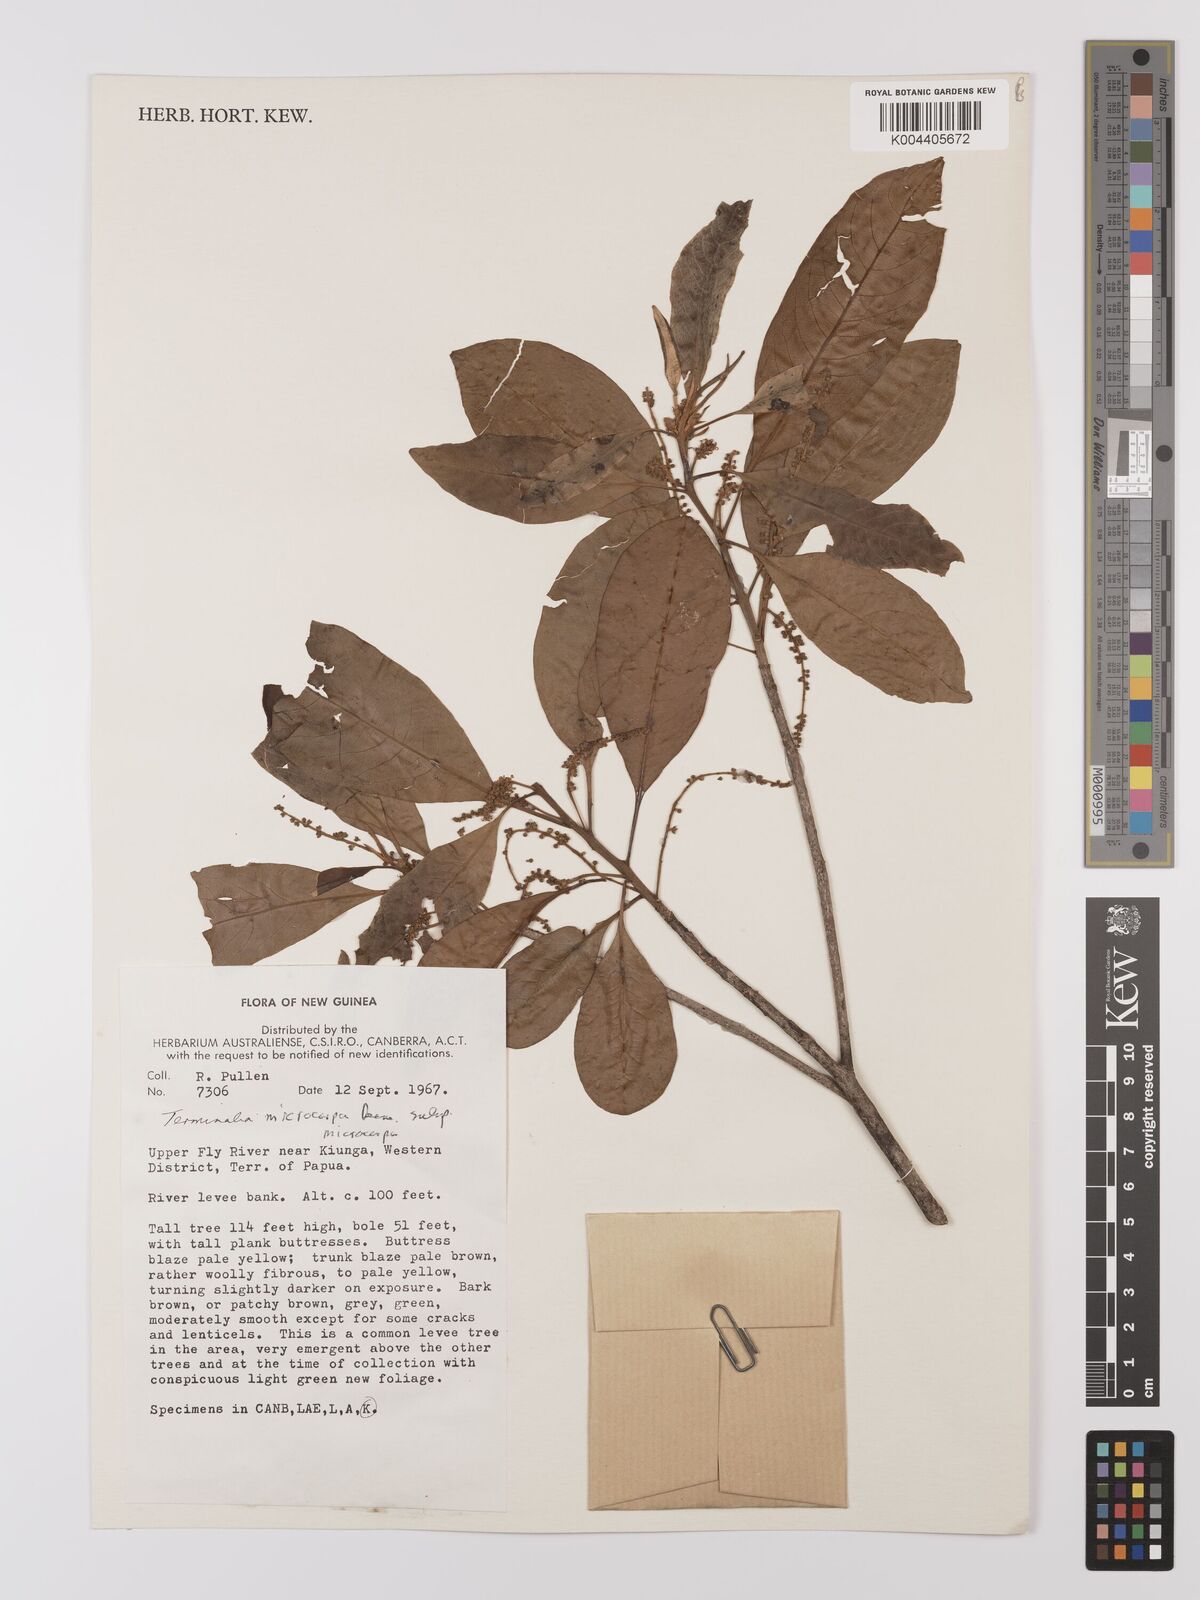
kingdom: Plantae
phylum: Tracheophyta
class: Magnoliopsida
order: Myrtales
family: Combretaceae
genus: Terminalia
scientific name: Terminalia
